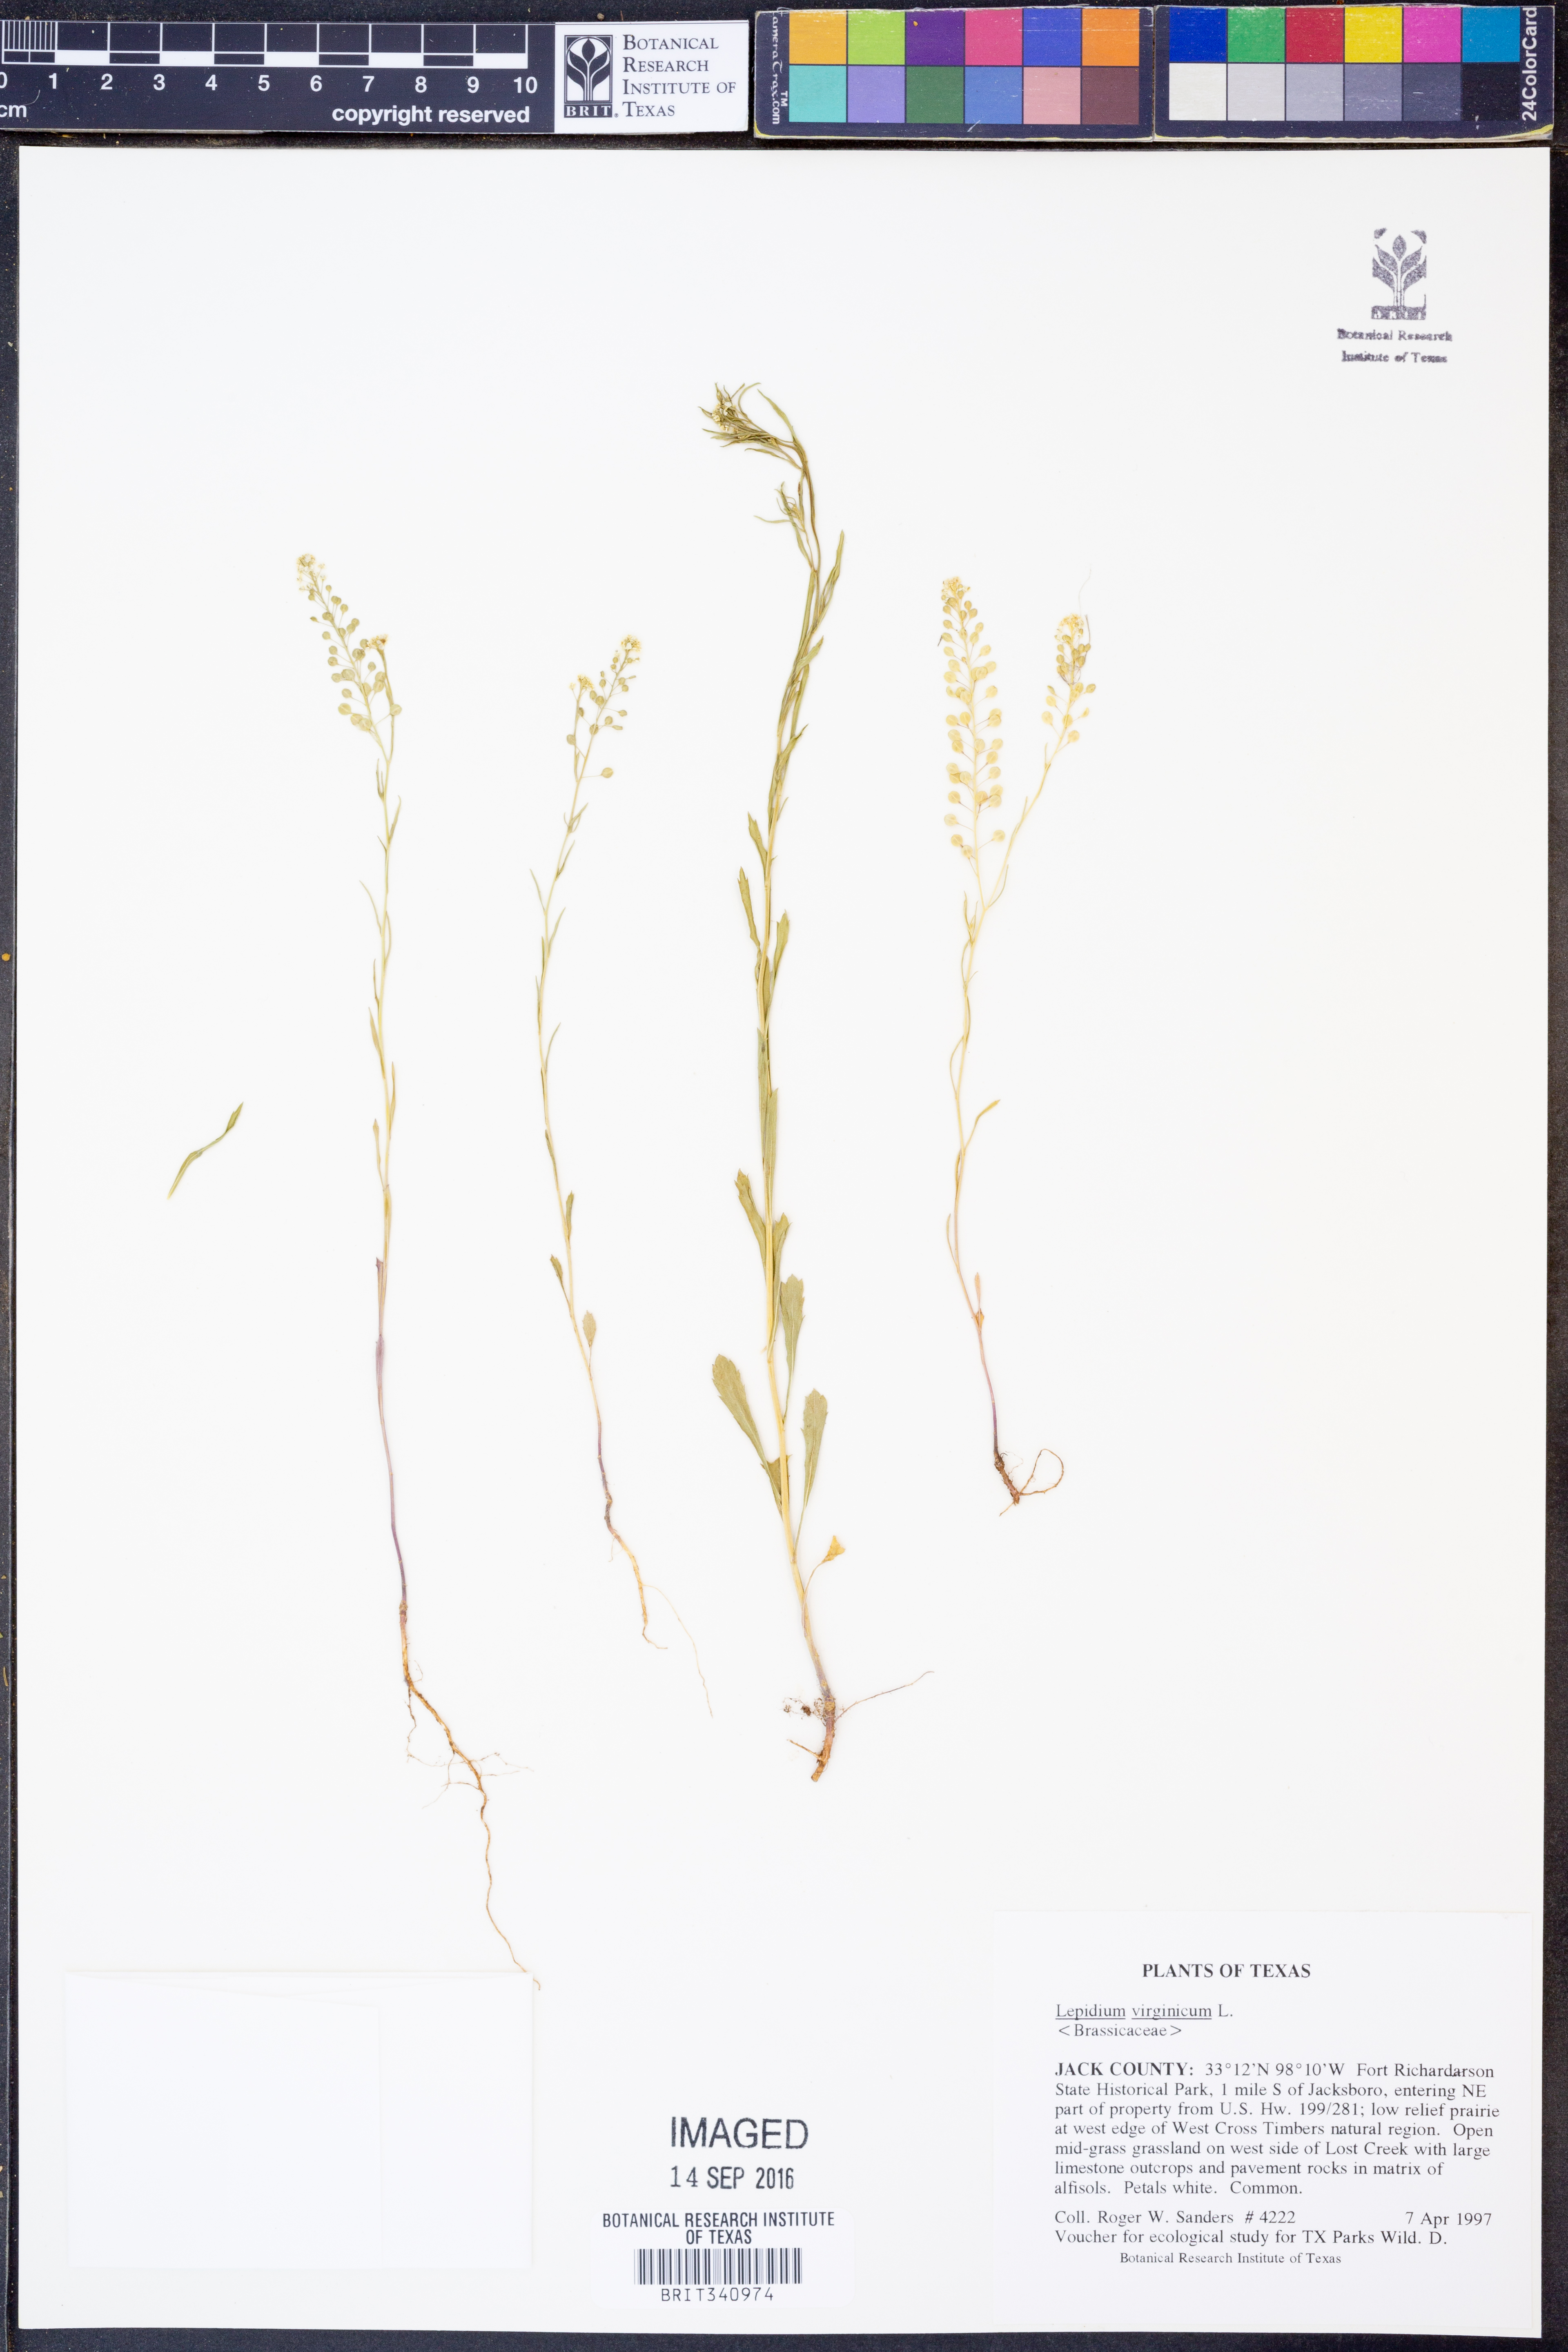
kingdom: Plantae
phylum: Tracheophyta
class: Magnoliopsida
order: Brassicales
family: Brassicaceae
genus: Lepidium
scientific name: Lepidium virginicum
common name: Least pepperwort
